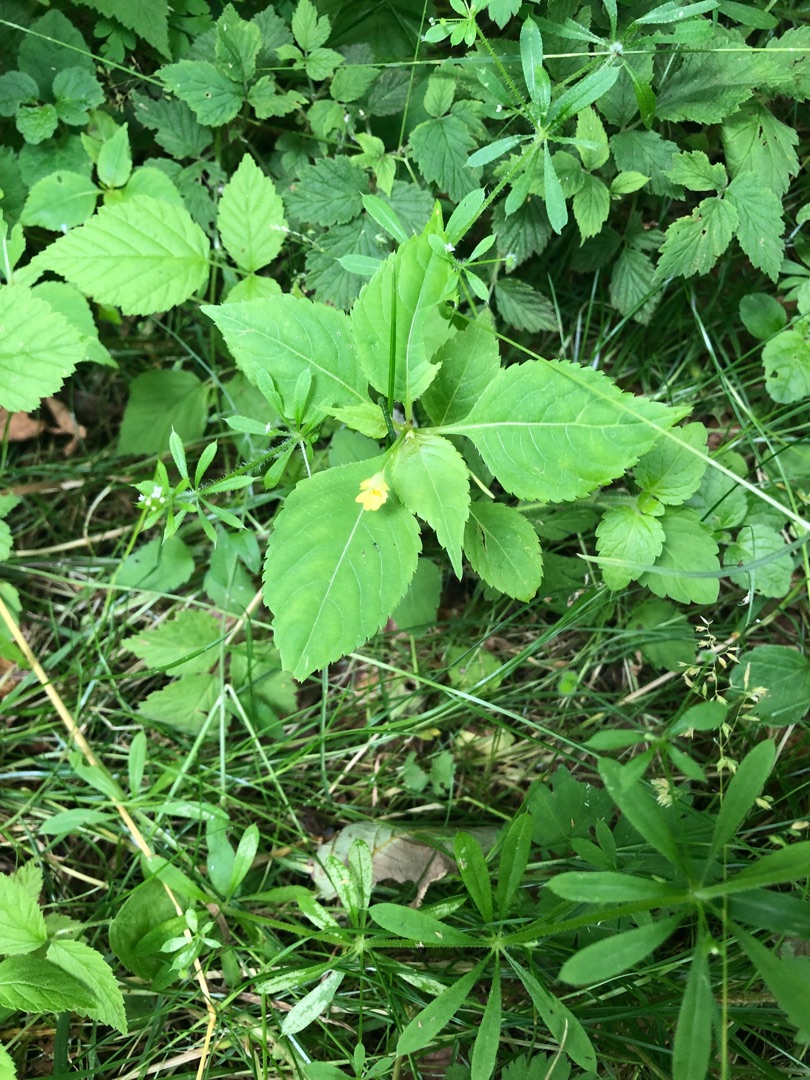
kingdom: Plantae
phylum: Tracheophyta
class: Magnoliopsida
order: Ericales
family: Balsaminaceae
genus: Impatiens
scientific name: Impatiens parviflora
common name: Småblomstret balsamin
